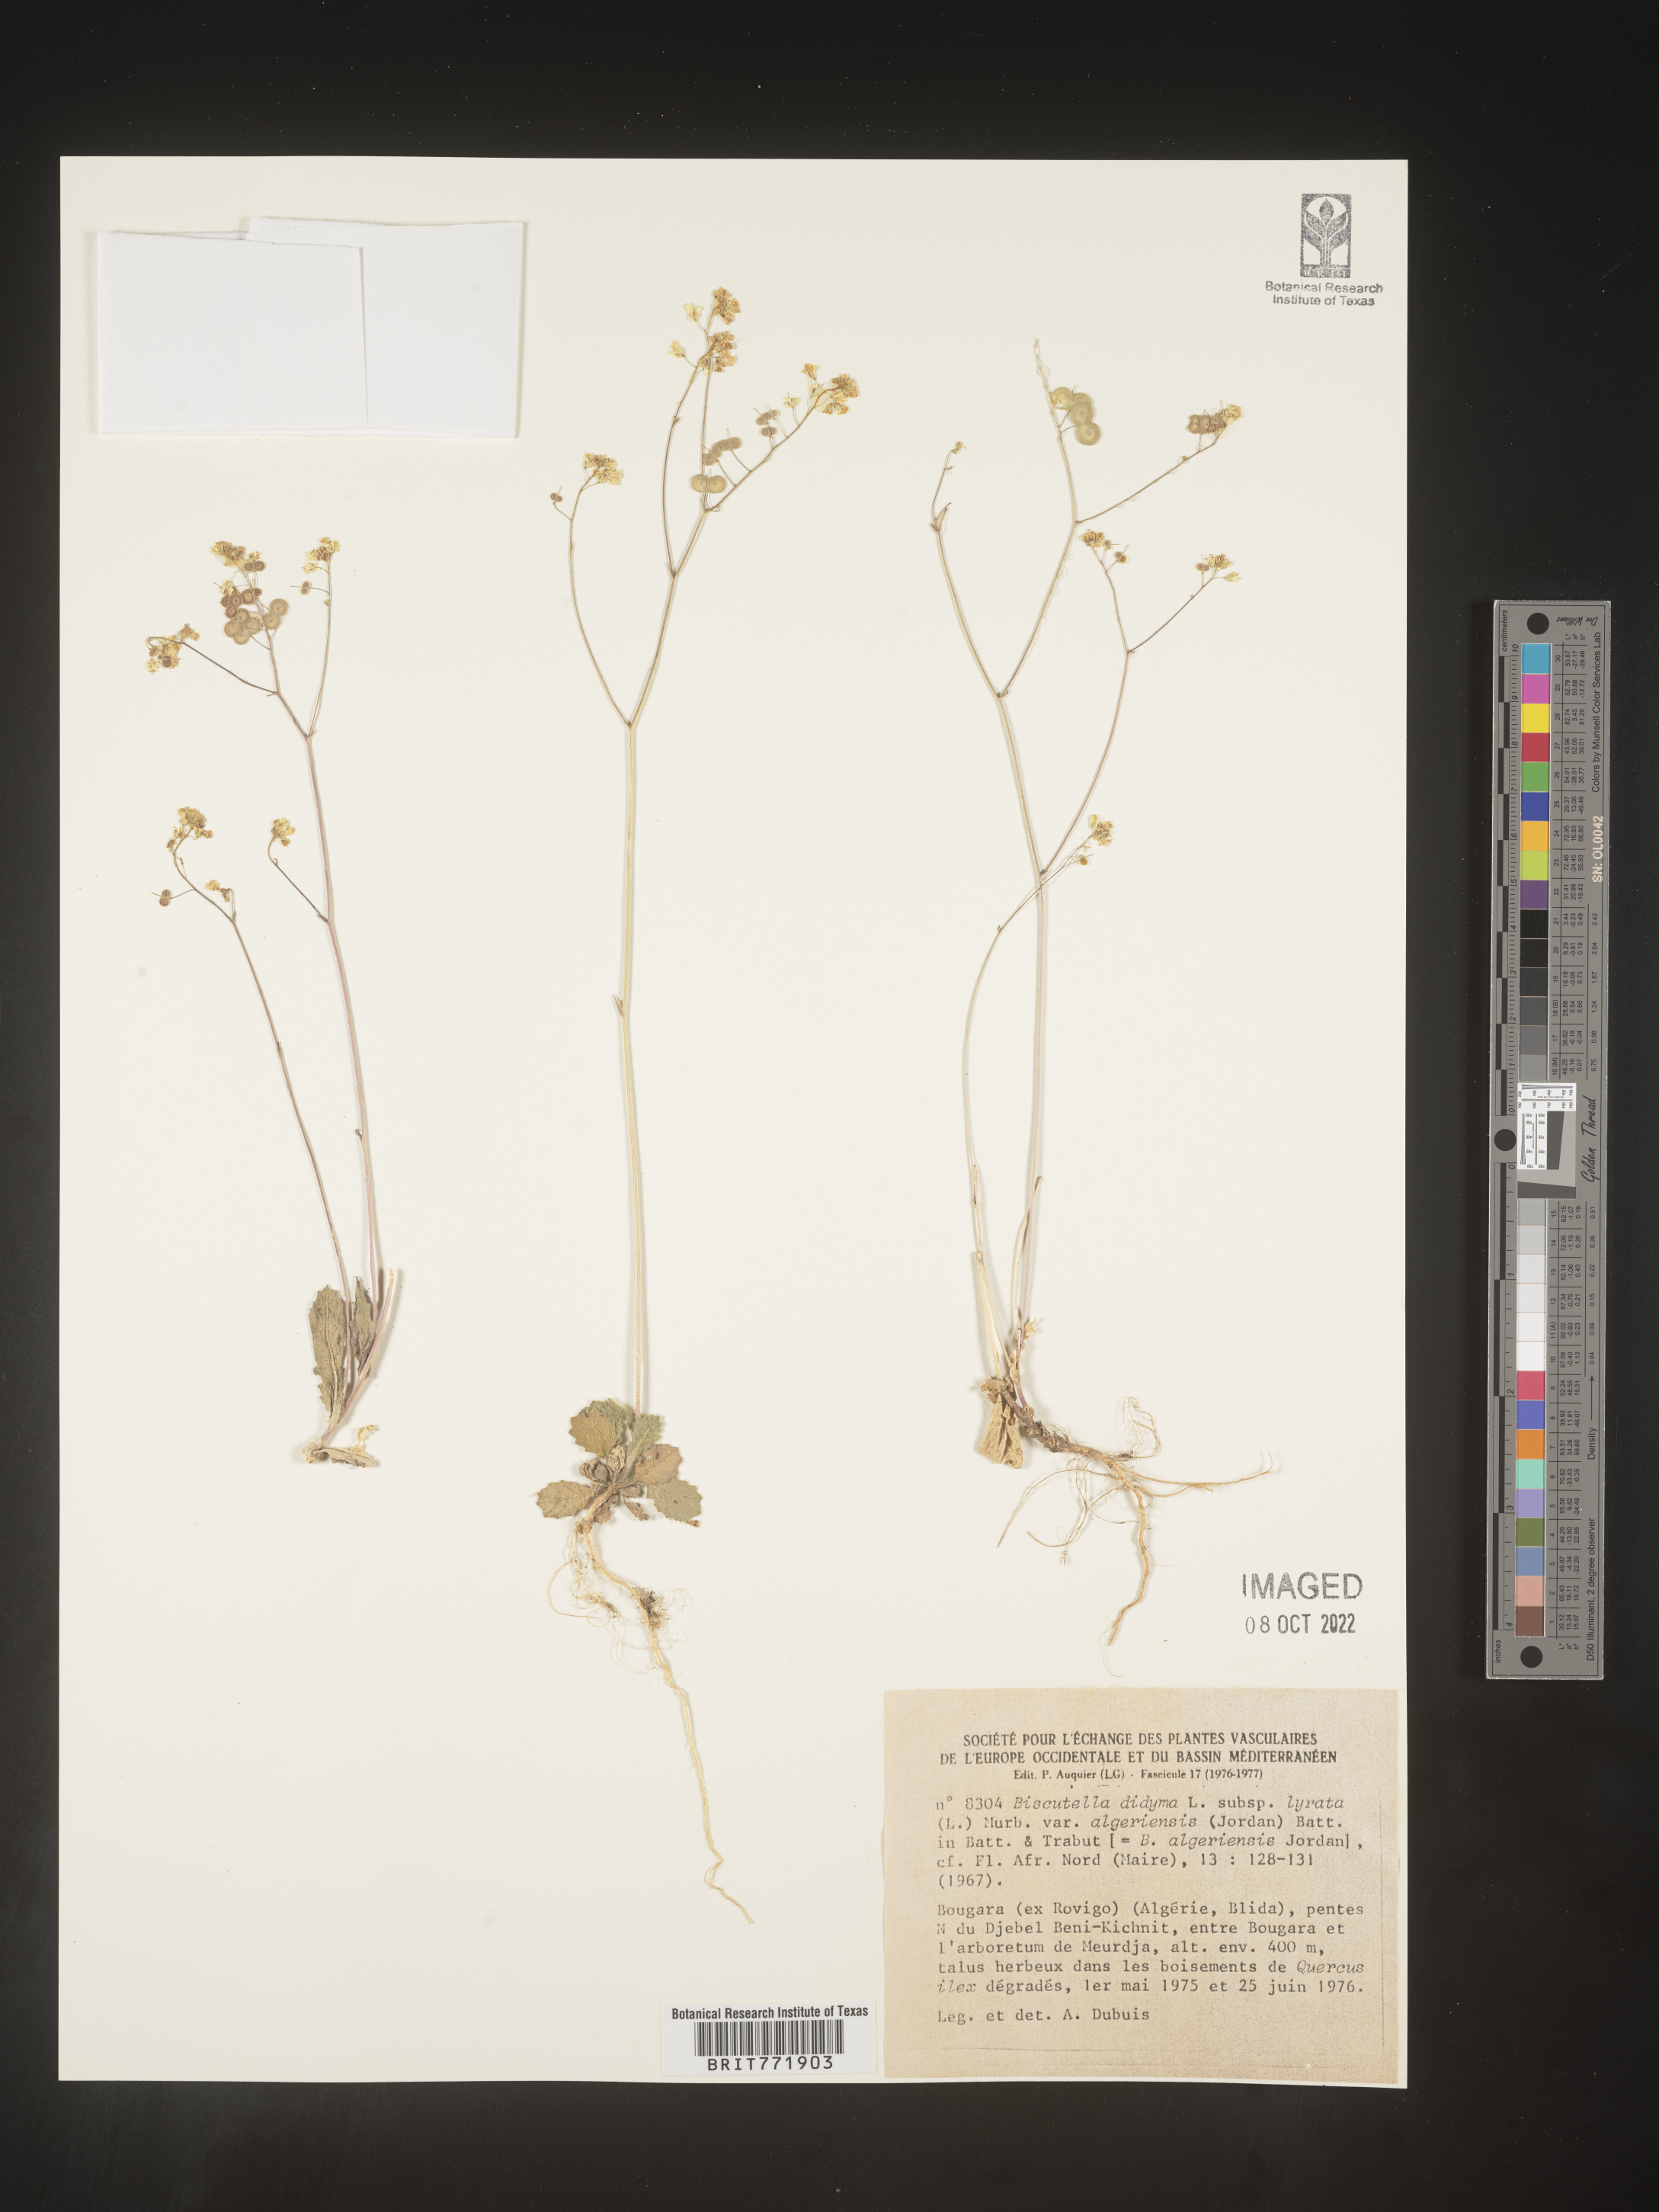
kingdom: Plantae
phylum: Tracheophyta
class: Magnoliopsida
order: Brassicales
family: Brassicaceae
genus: Biscutella
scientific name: Biscutella
